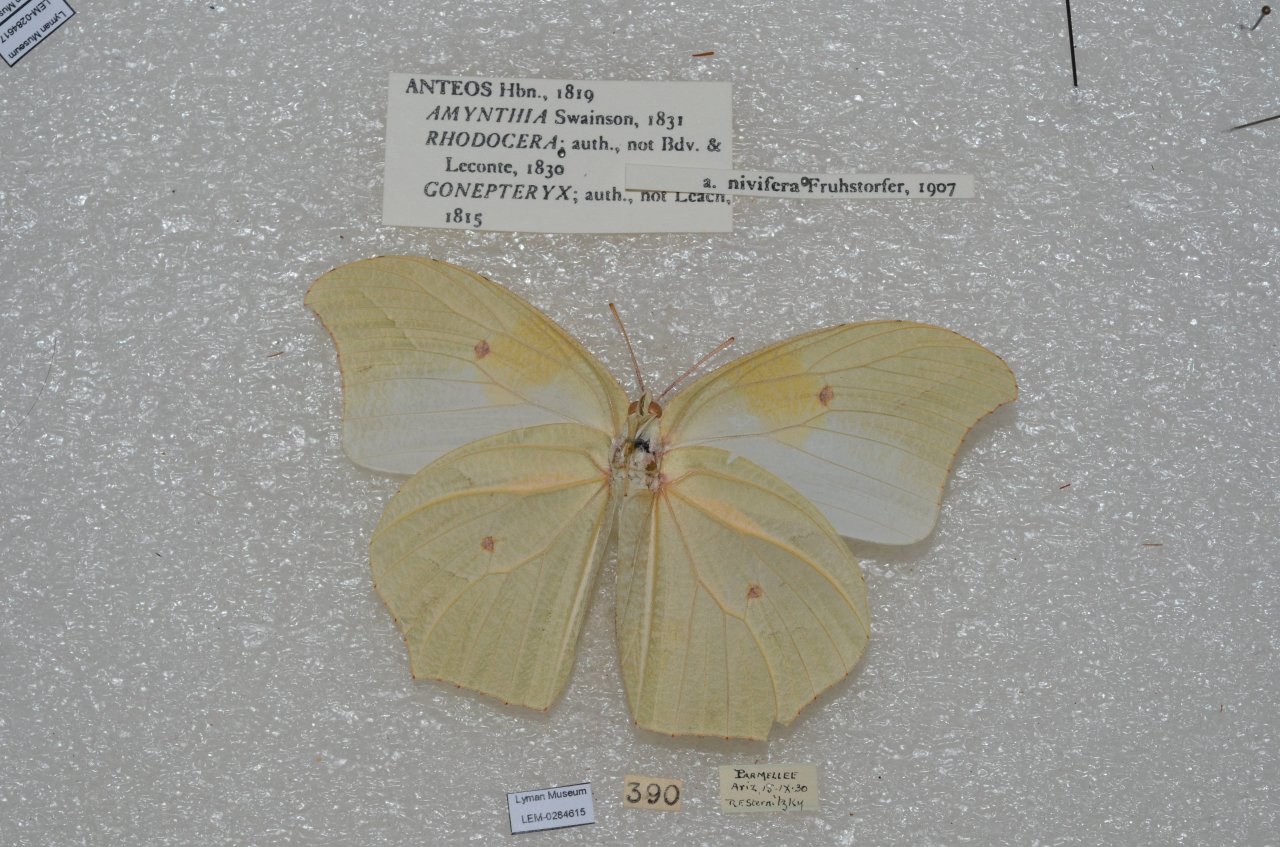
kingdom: Animalia
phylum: Arthropoda
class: Insecta
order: Lepidoptera
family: Pieridae
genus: Anteos
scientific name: Anteos clorinde
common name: White Angled-Sulphur
